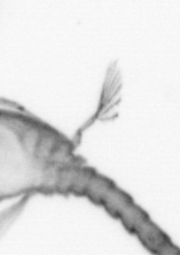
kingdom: Animalia
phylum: Arthropoda
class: Copepoda
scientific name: Copepoda
